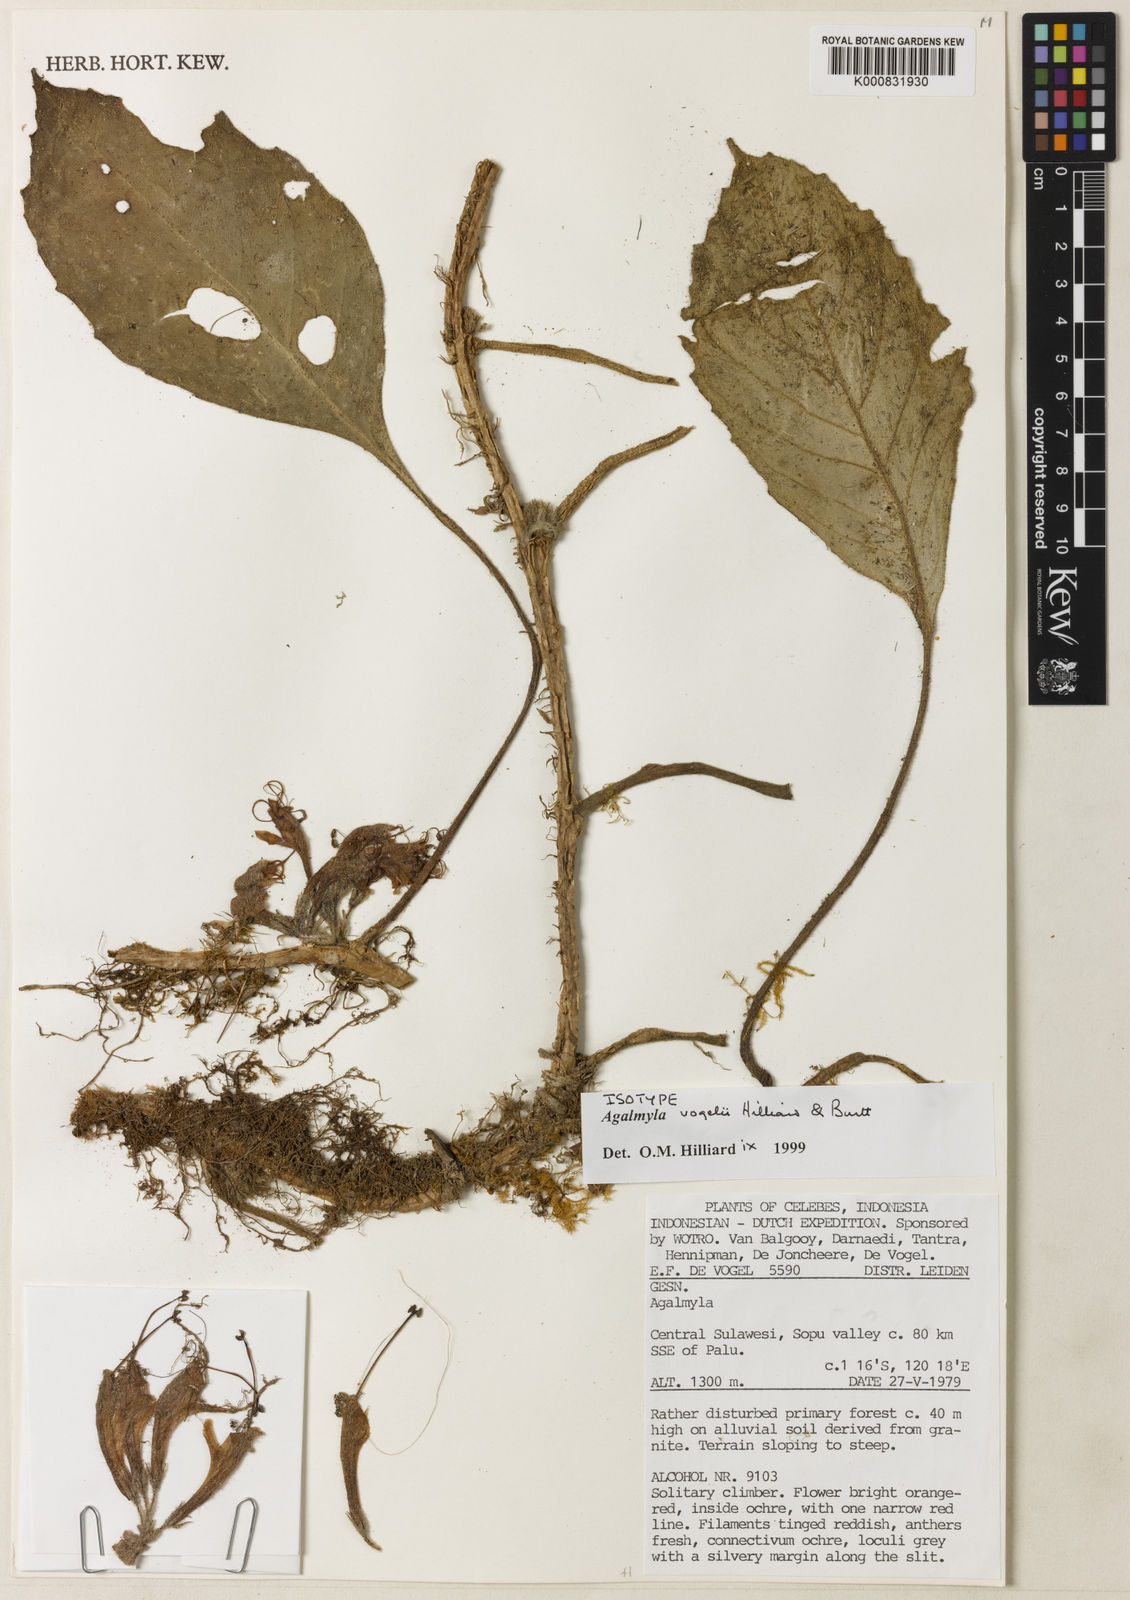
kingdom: Plantae
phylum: Tracheophyta
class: Magnoliopsida
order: Lamiales
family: Gesneriaceae
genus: Agalmyla
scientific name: Agalmyla vogelii
